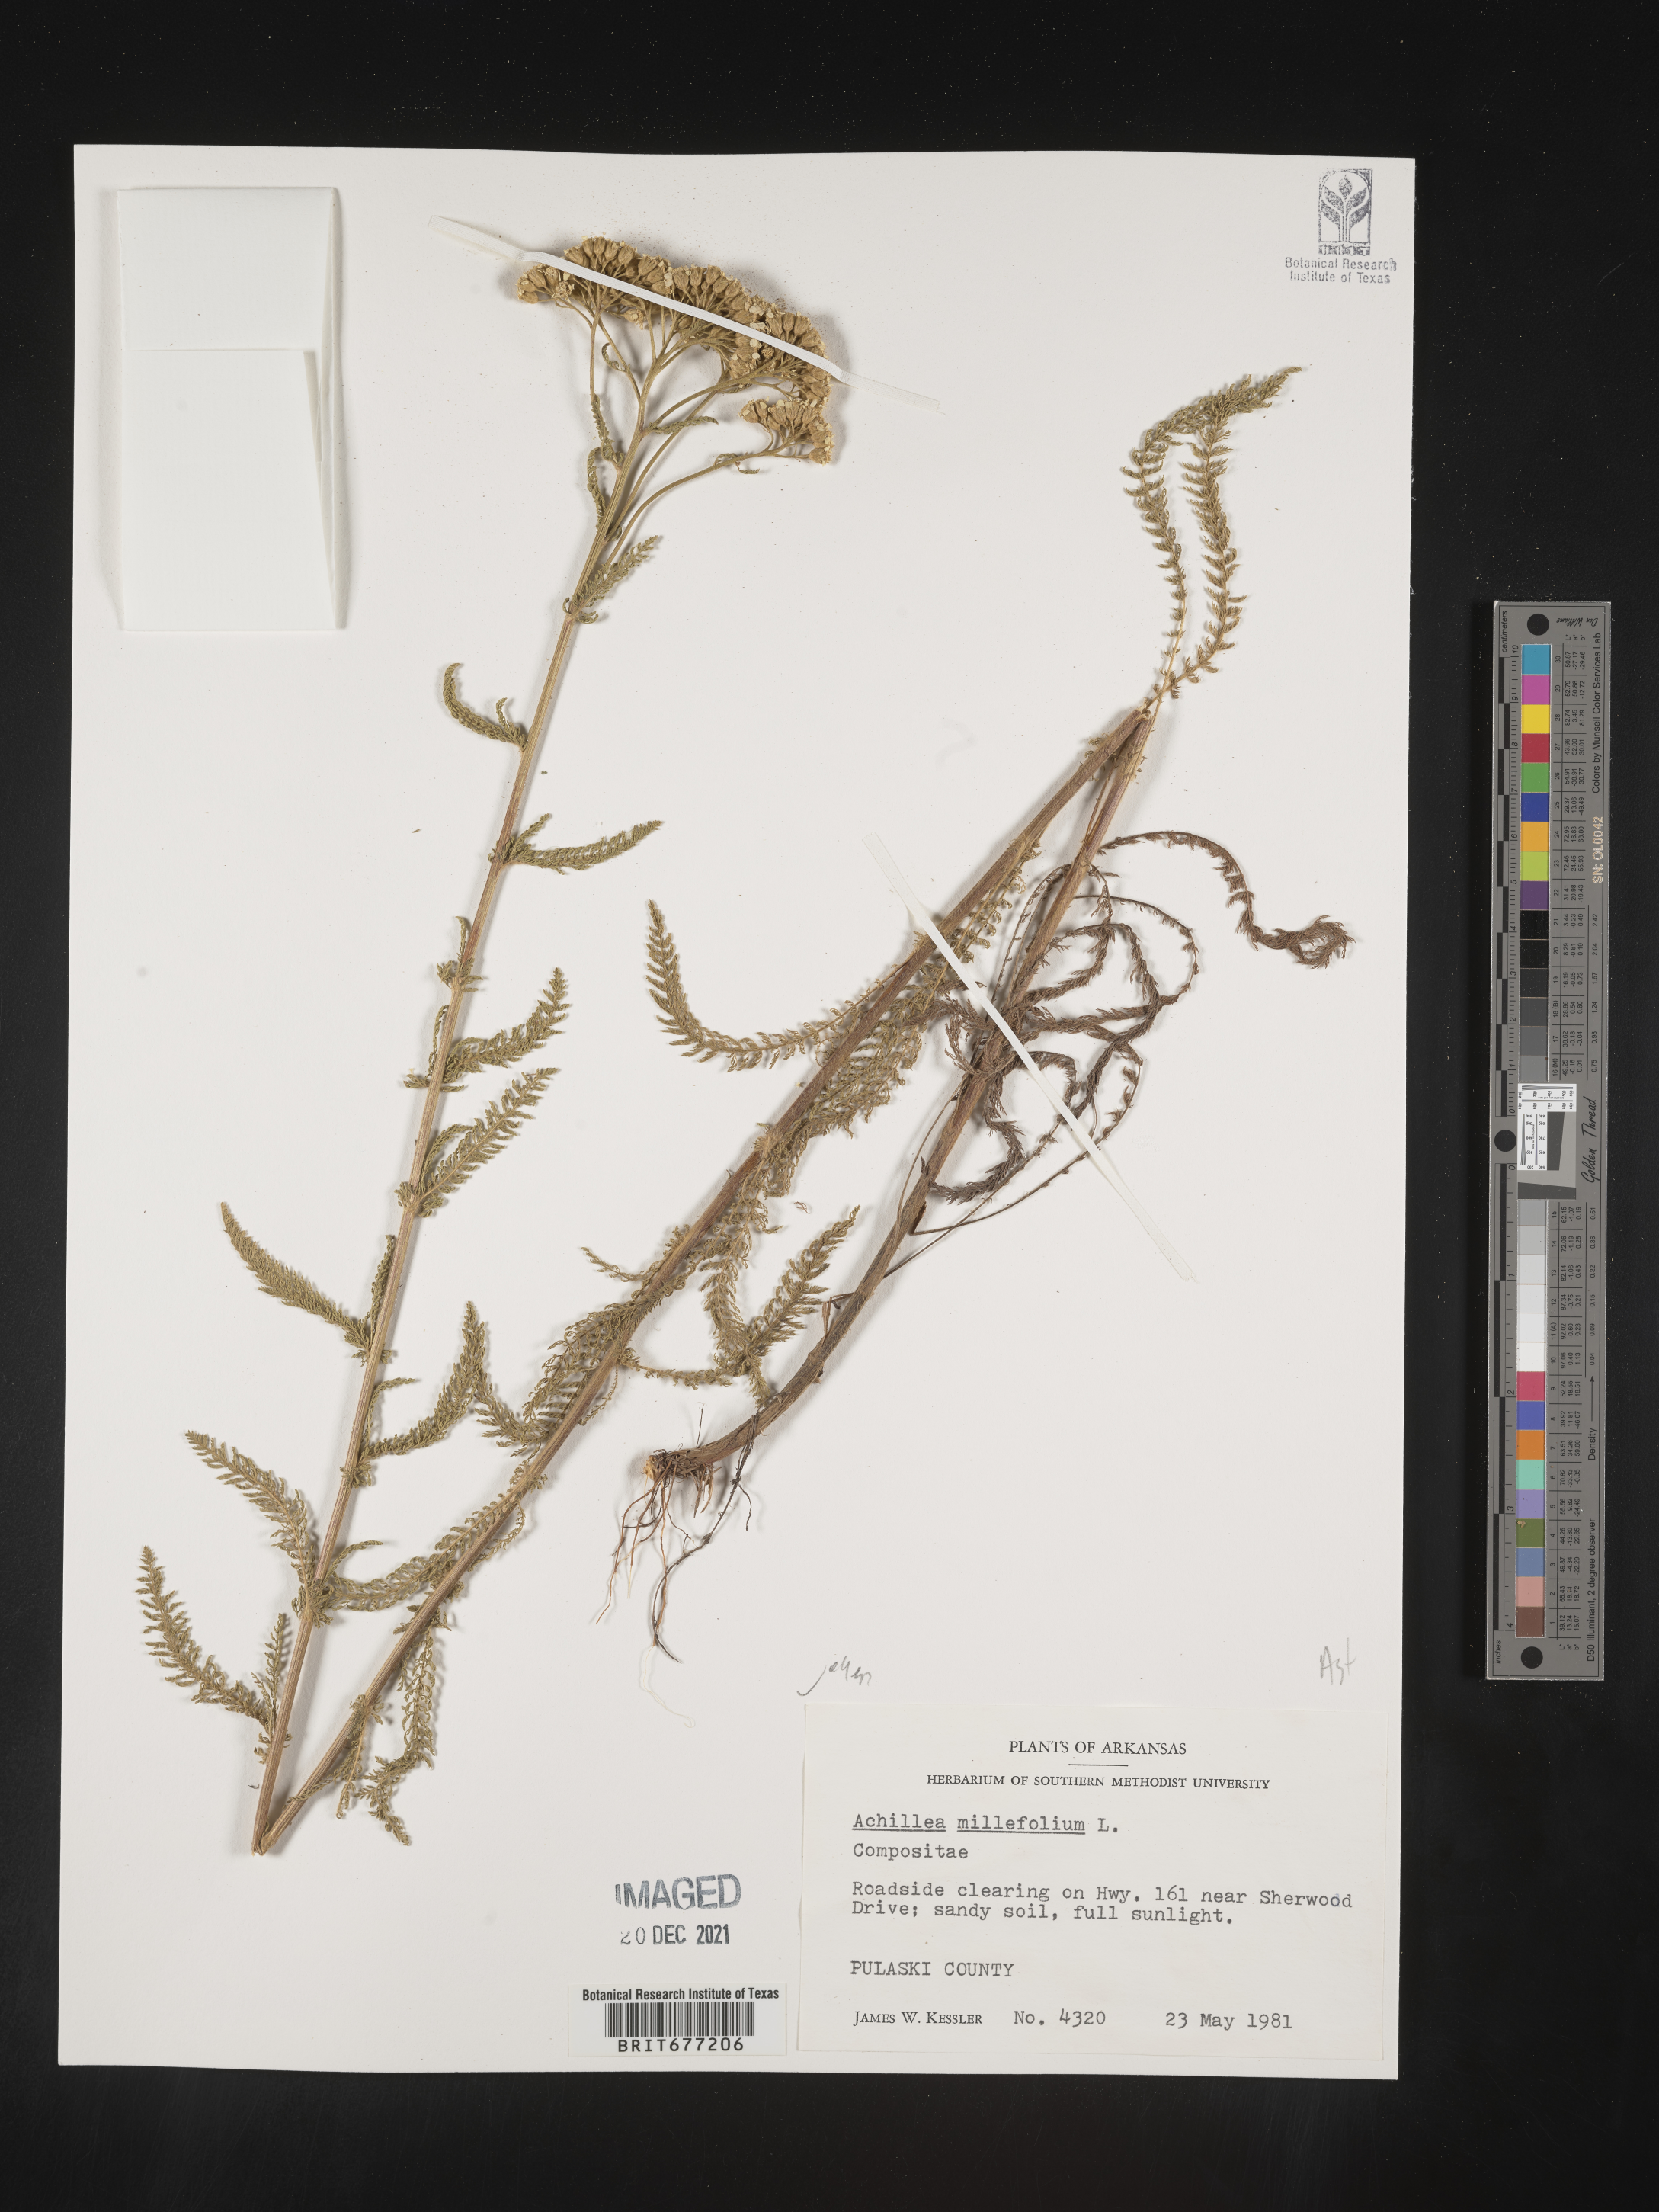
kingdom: Plantae
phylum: Tracheophyta
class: Magnoliopsida
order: Asterales
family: Asteraceae
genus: Achillea
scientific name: Achillea millefolium
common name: Yarrow
